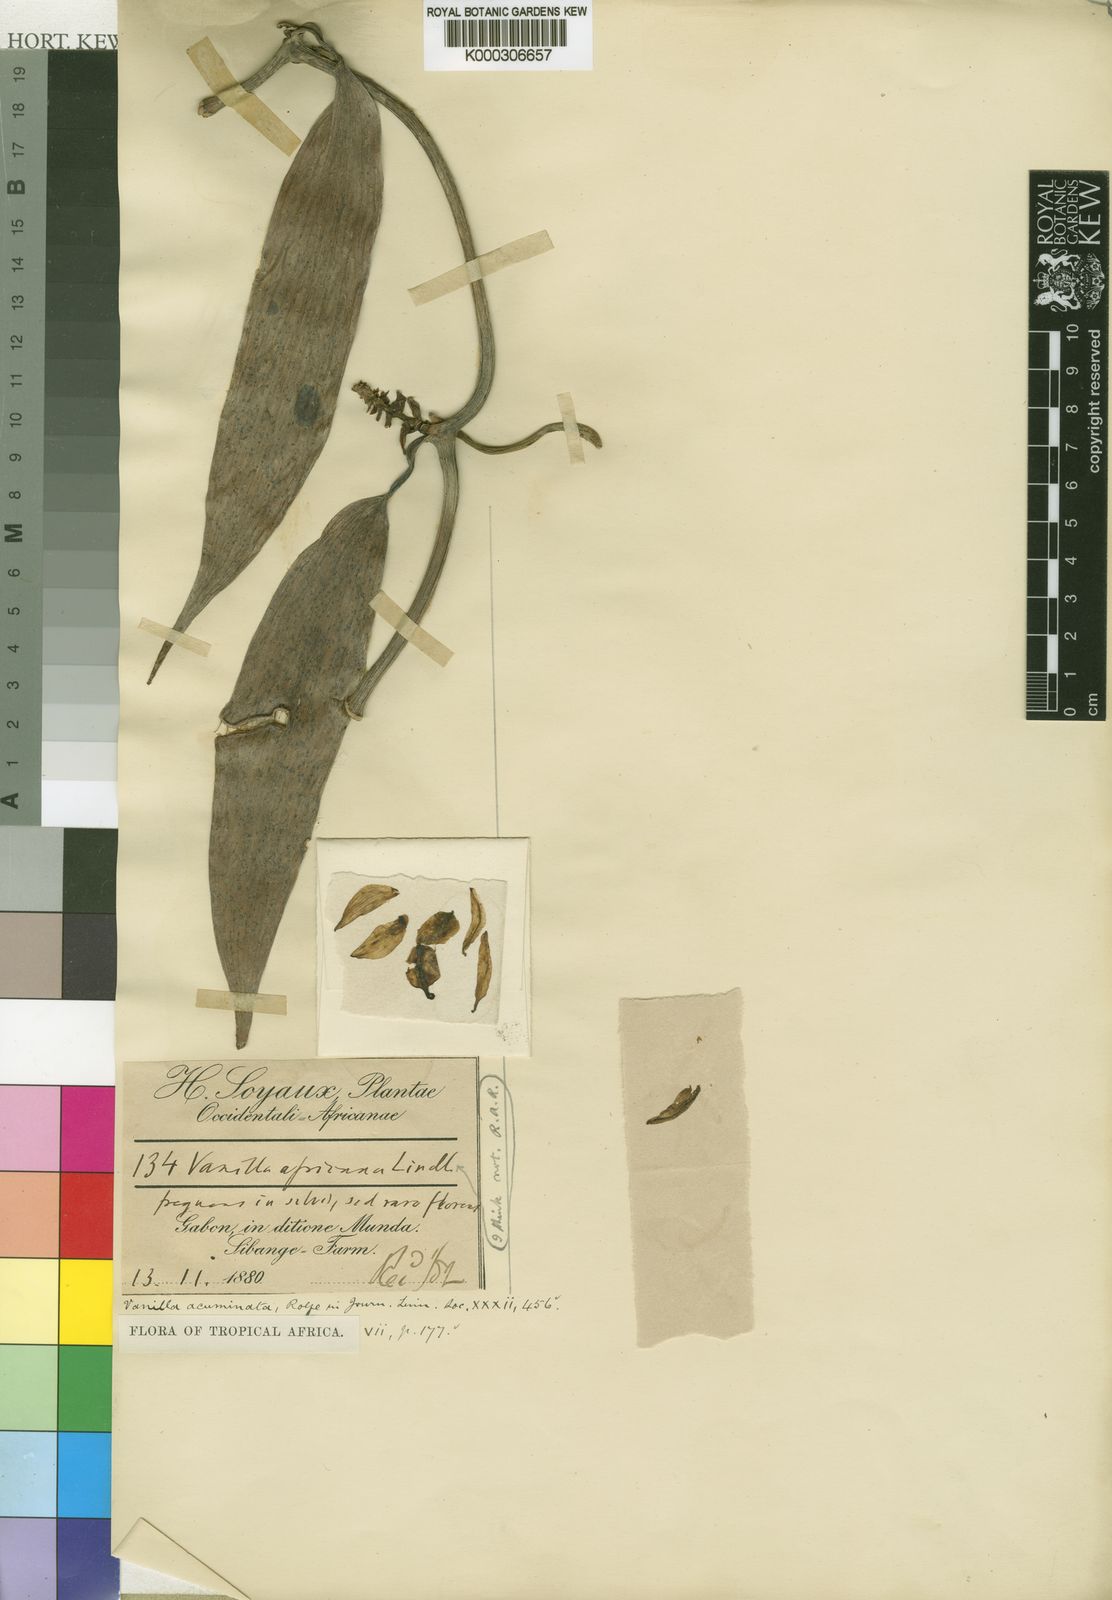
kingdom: Plantae
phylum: Tracheophyta
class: Liliopsida
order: Asparagales
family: Orchidaceae
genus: Vanilla
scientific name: Vanilla acuminata
